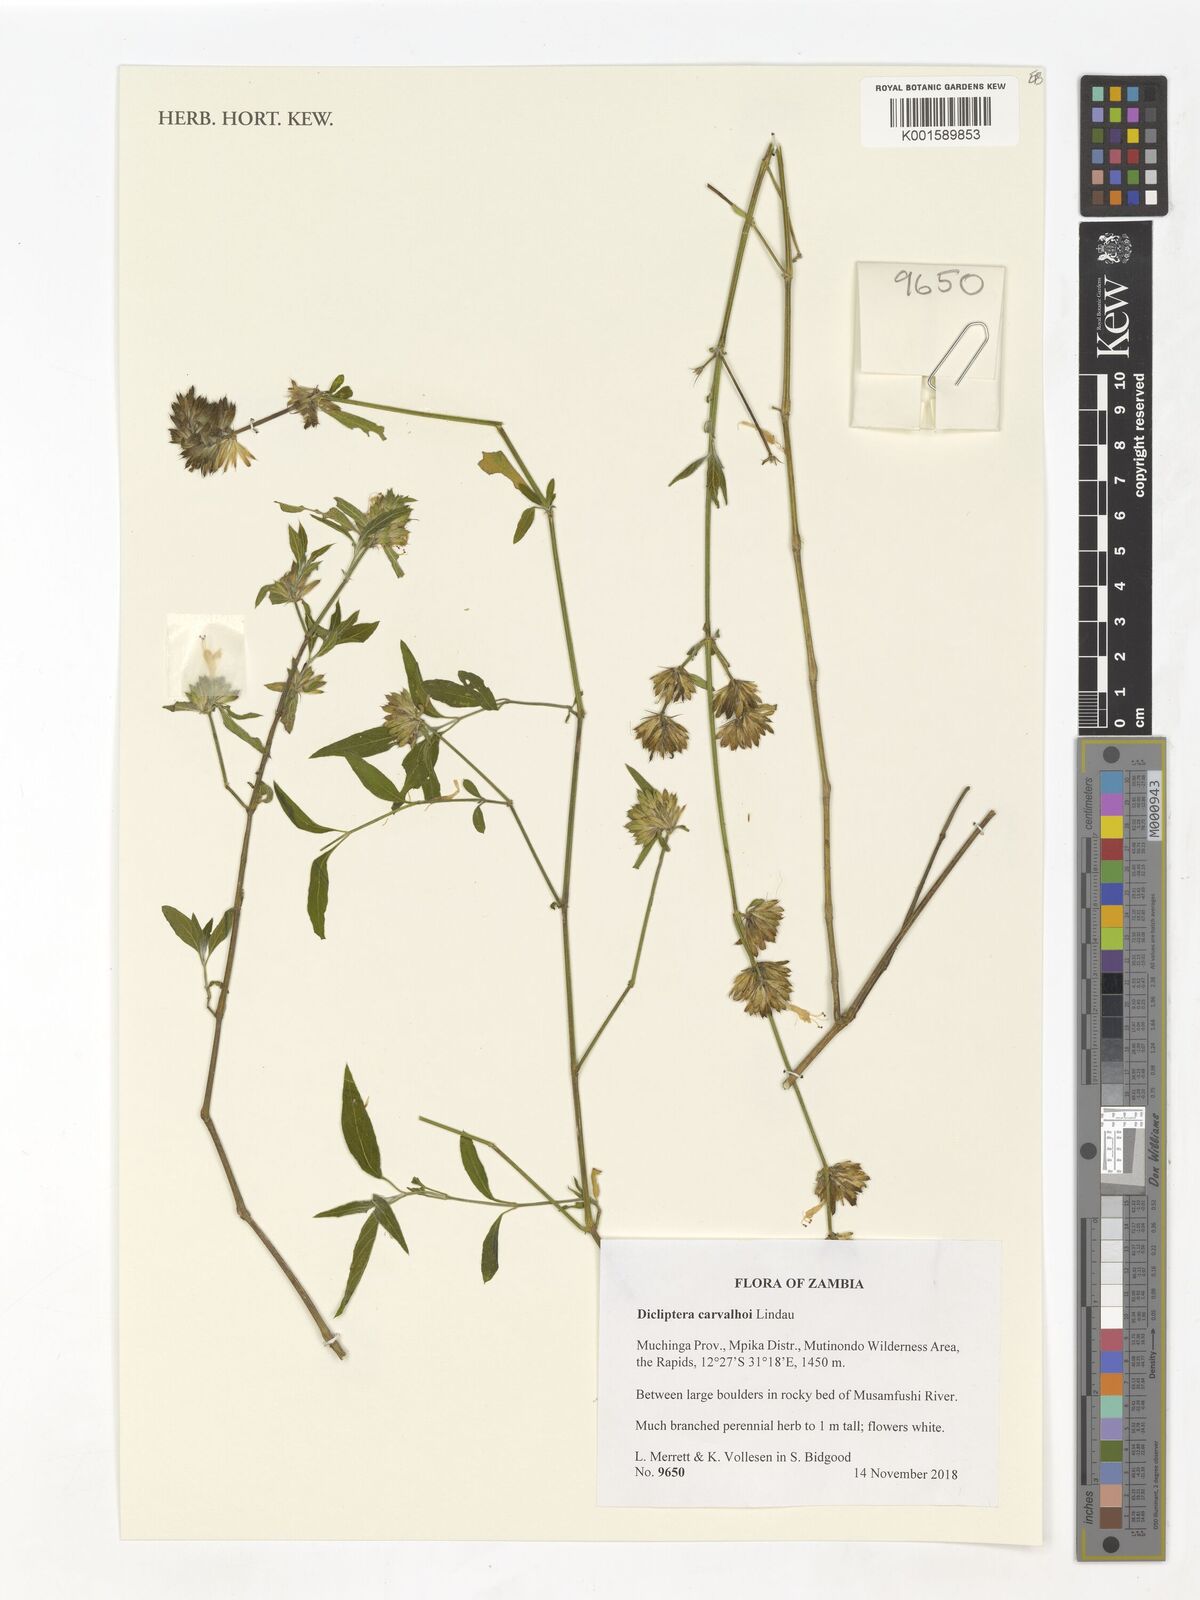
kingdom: Plantae
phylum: Tracheophyta
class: Magnoliopsida
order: Lamiales
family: Acanthaceae
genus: Dicliptera
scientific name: Dicliptera carvalhoi
